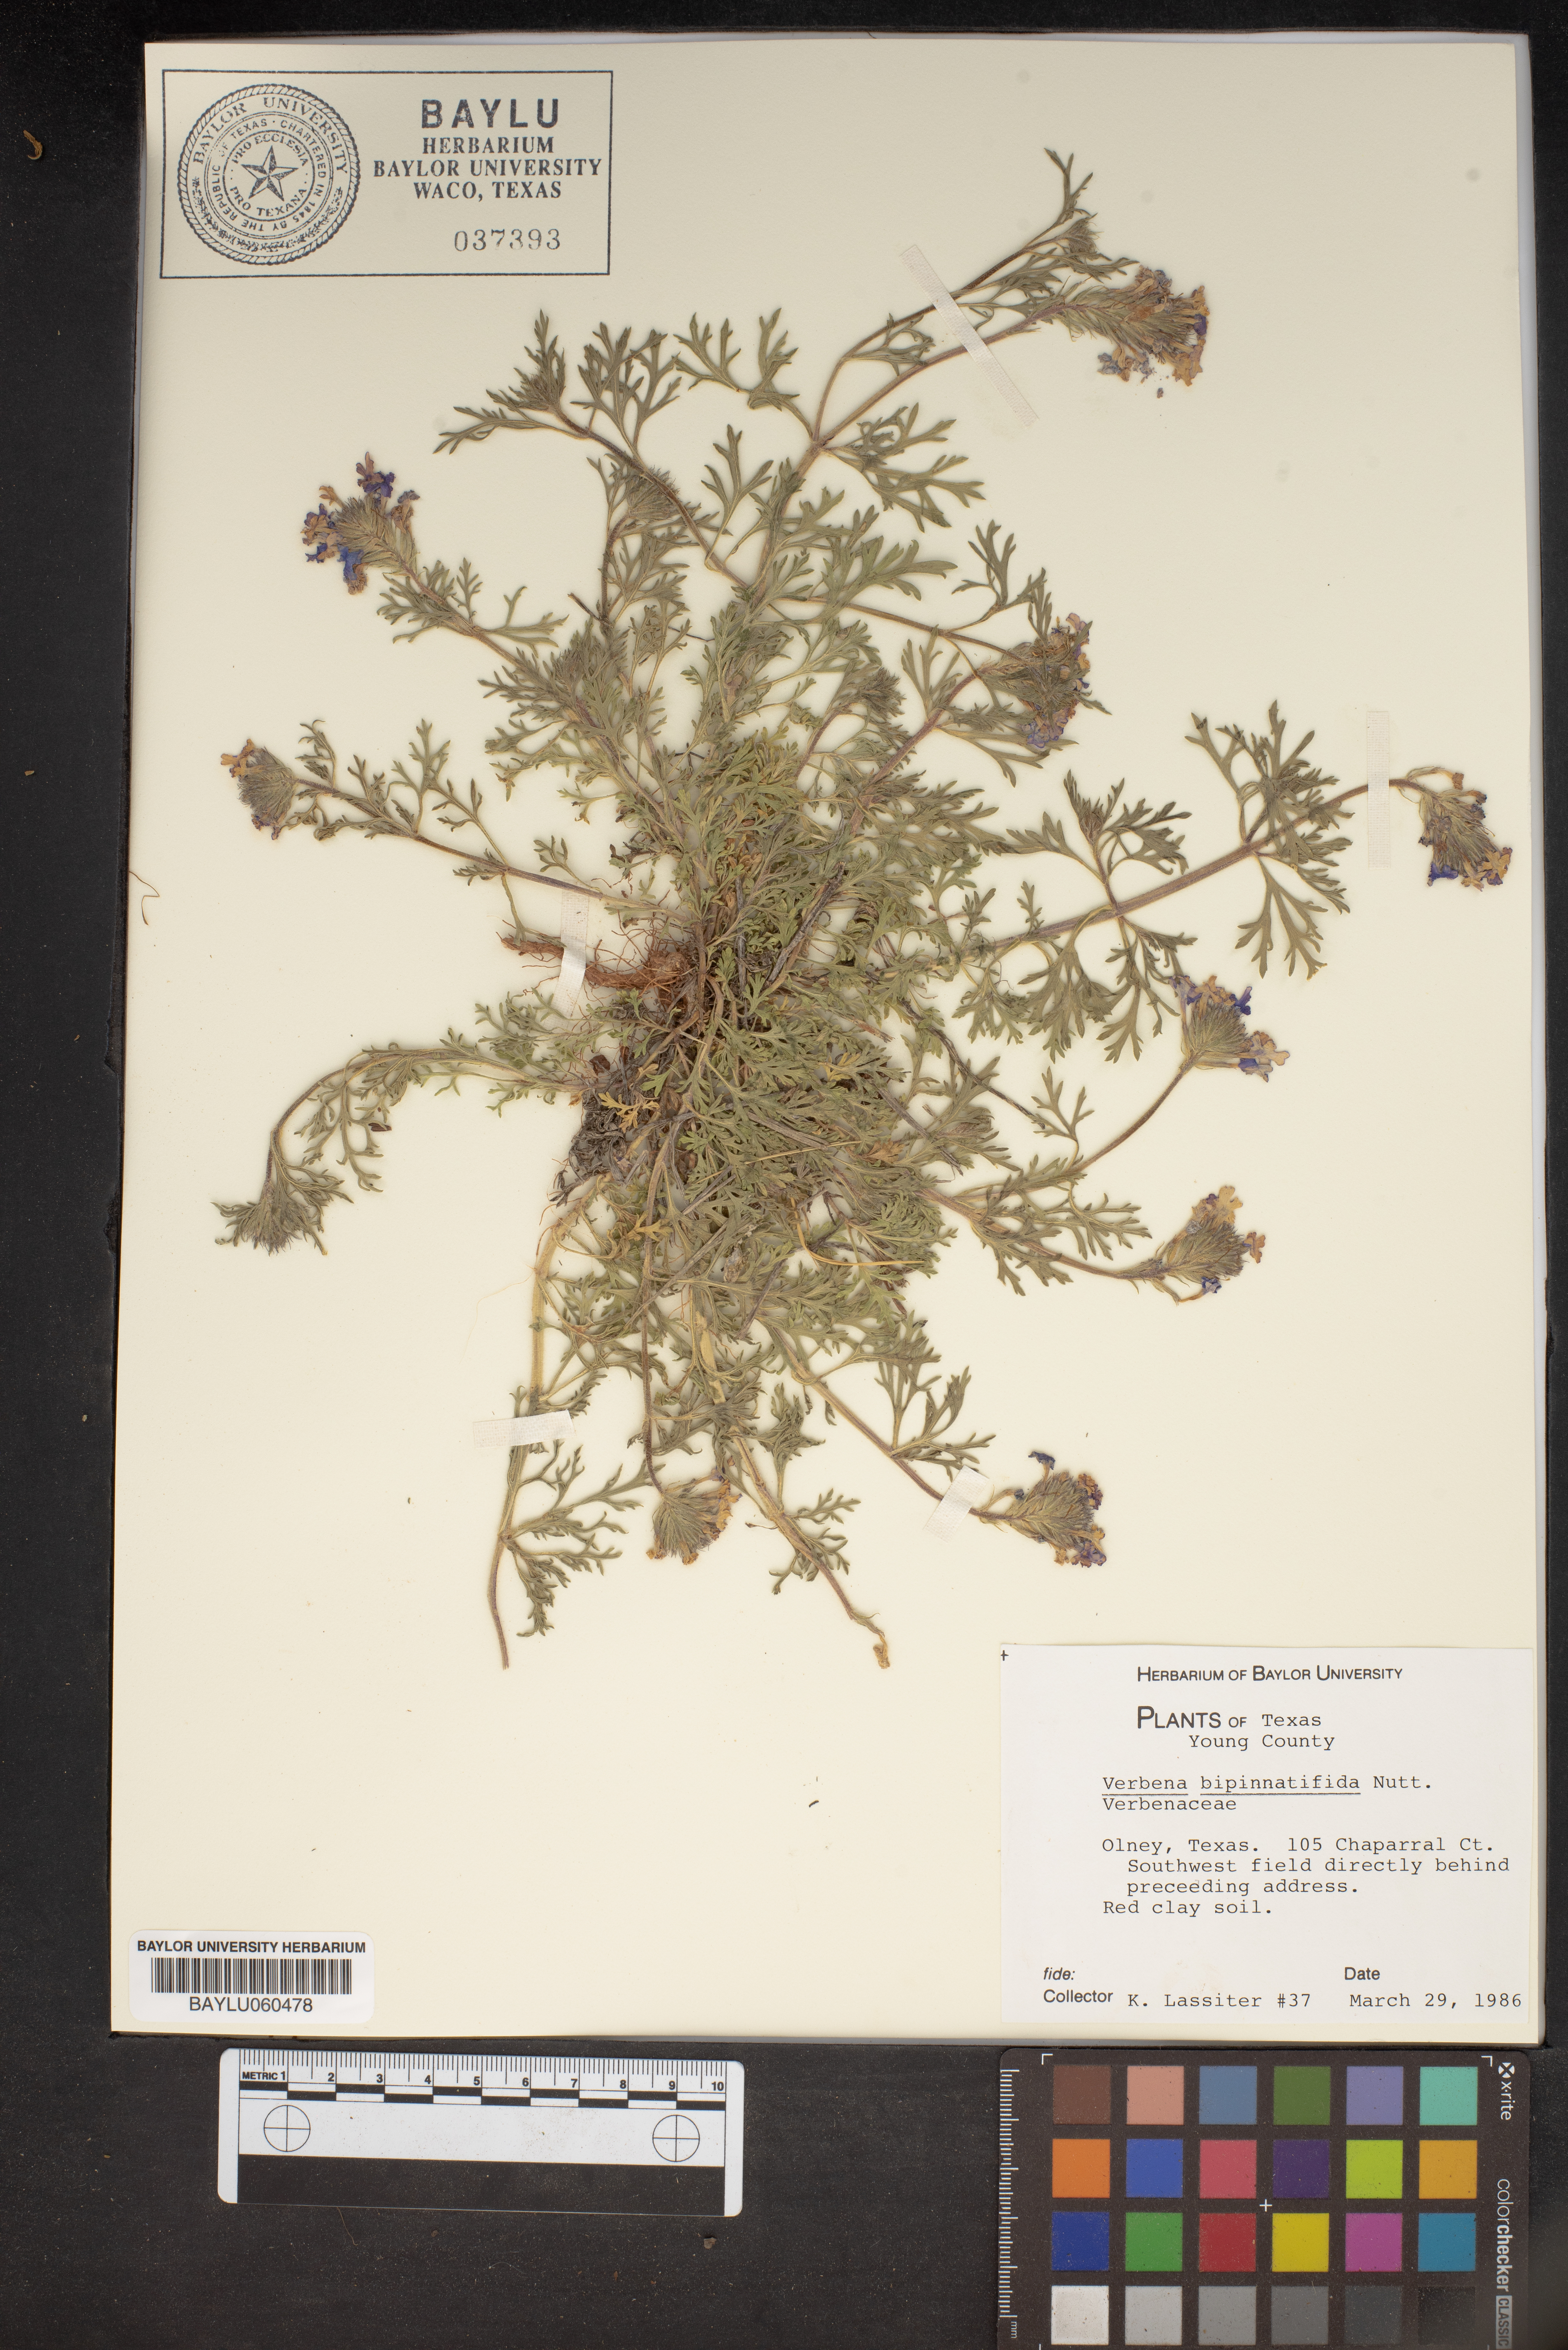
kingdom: Plantae
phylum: Tracheophyta
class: Magnoliopsida
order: Lamiales
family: Verbenaceae
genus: Verbena
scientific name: Verbena bipinnatifida
